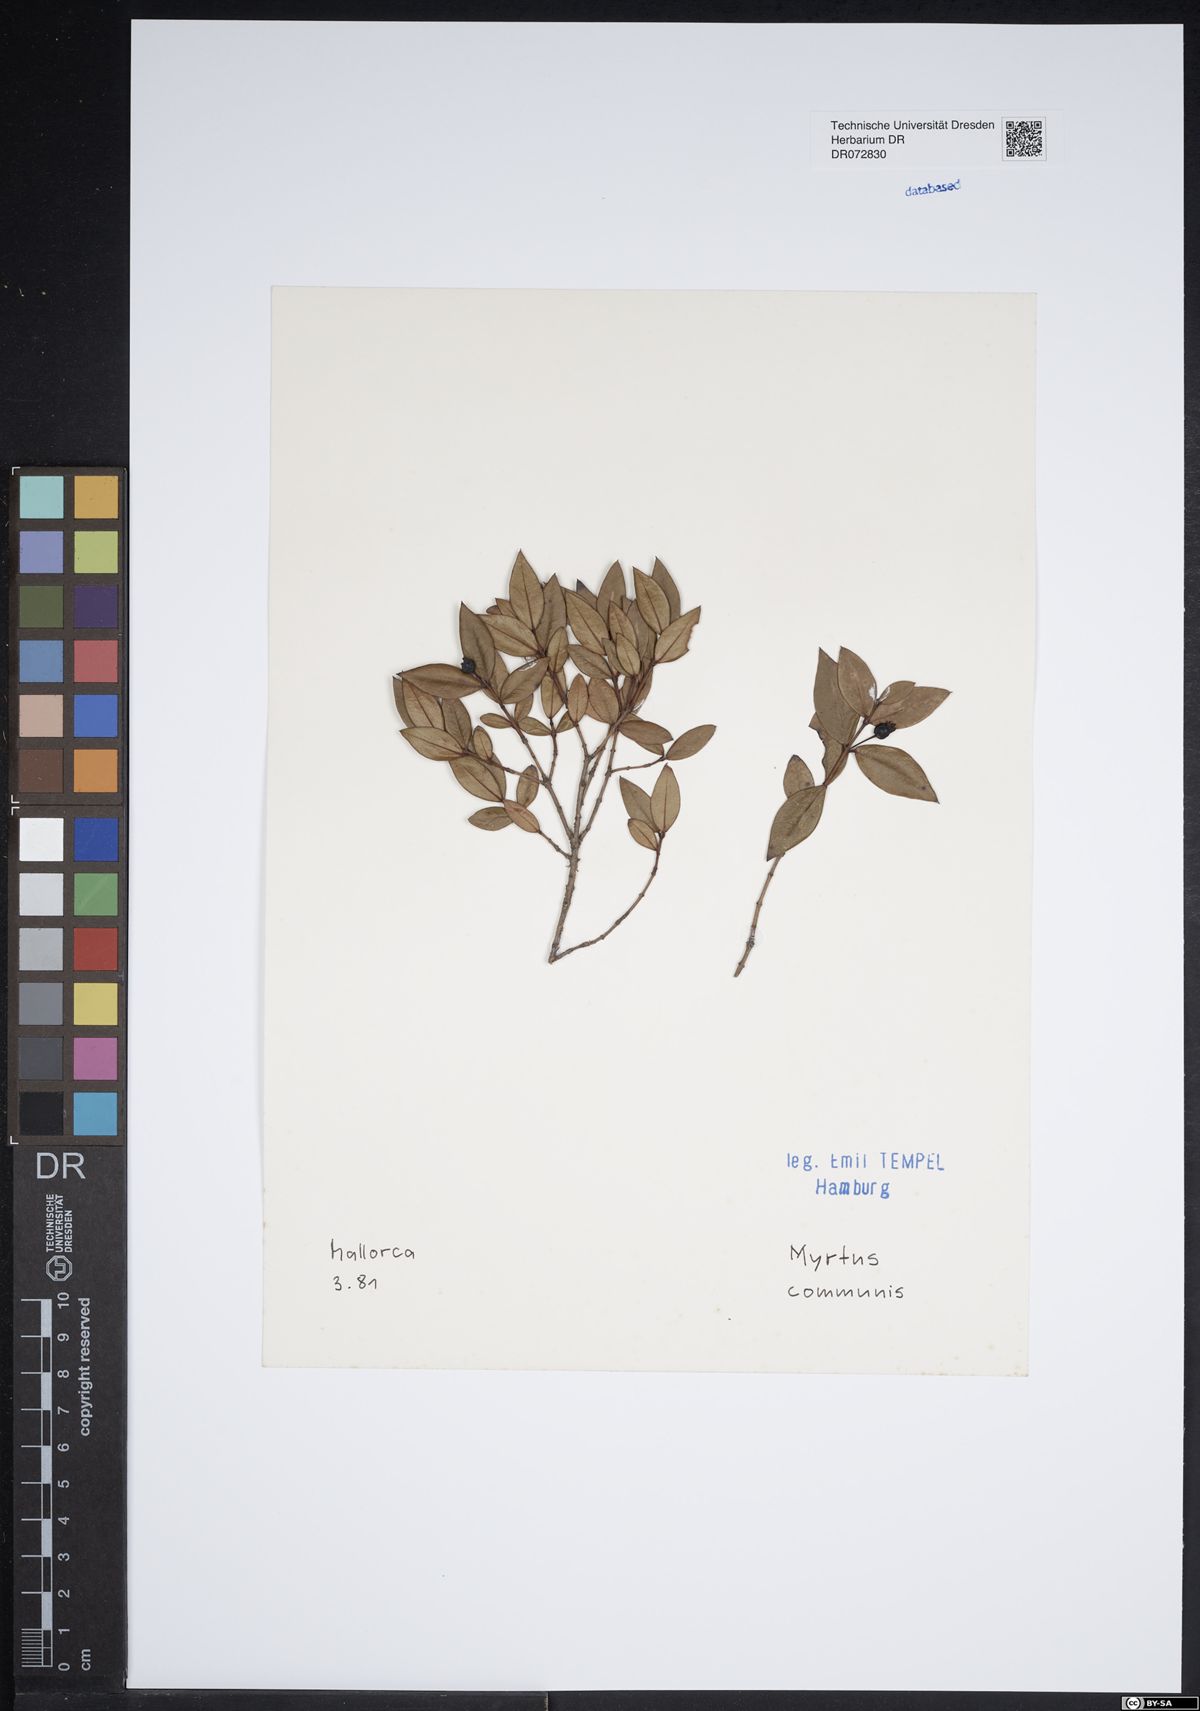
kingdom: Plantae
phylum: Tracheophyta
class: Magnoliopsida
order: Myrtales
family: Myrtaceae
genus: Myrtus
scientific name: Myrtus communis
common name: Myrtle
